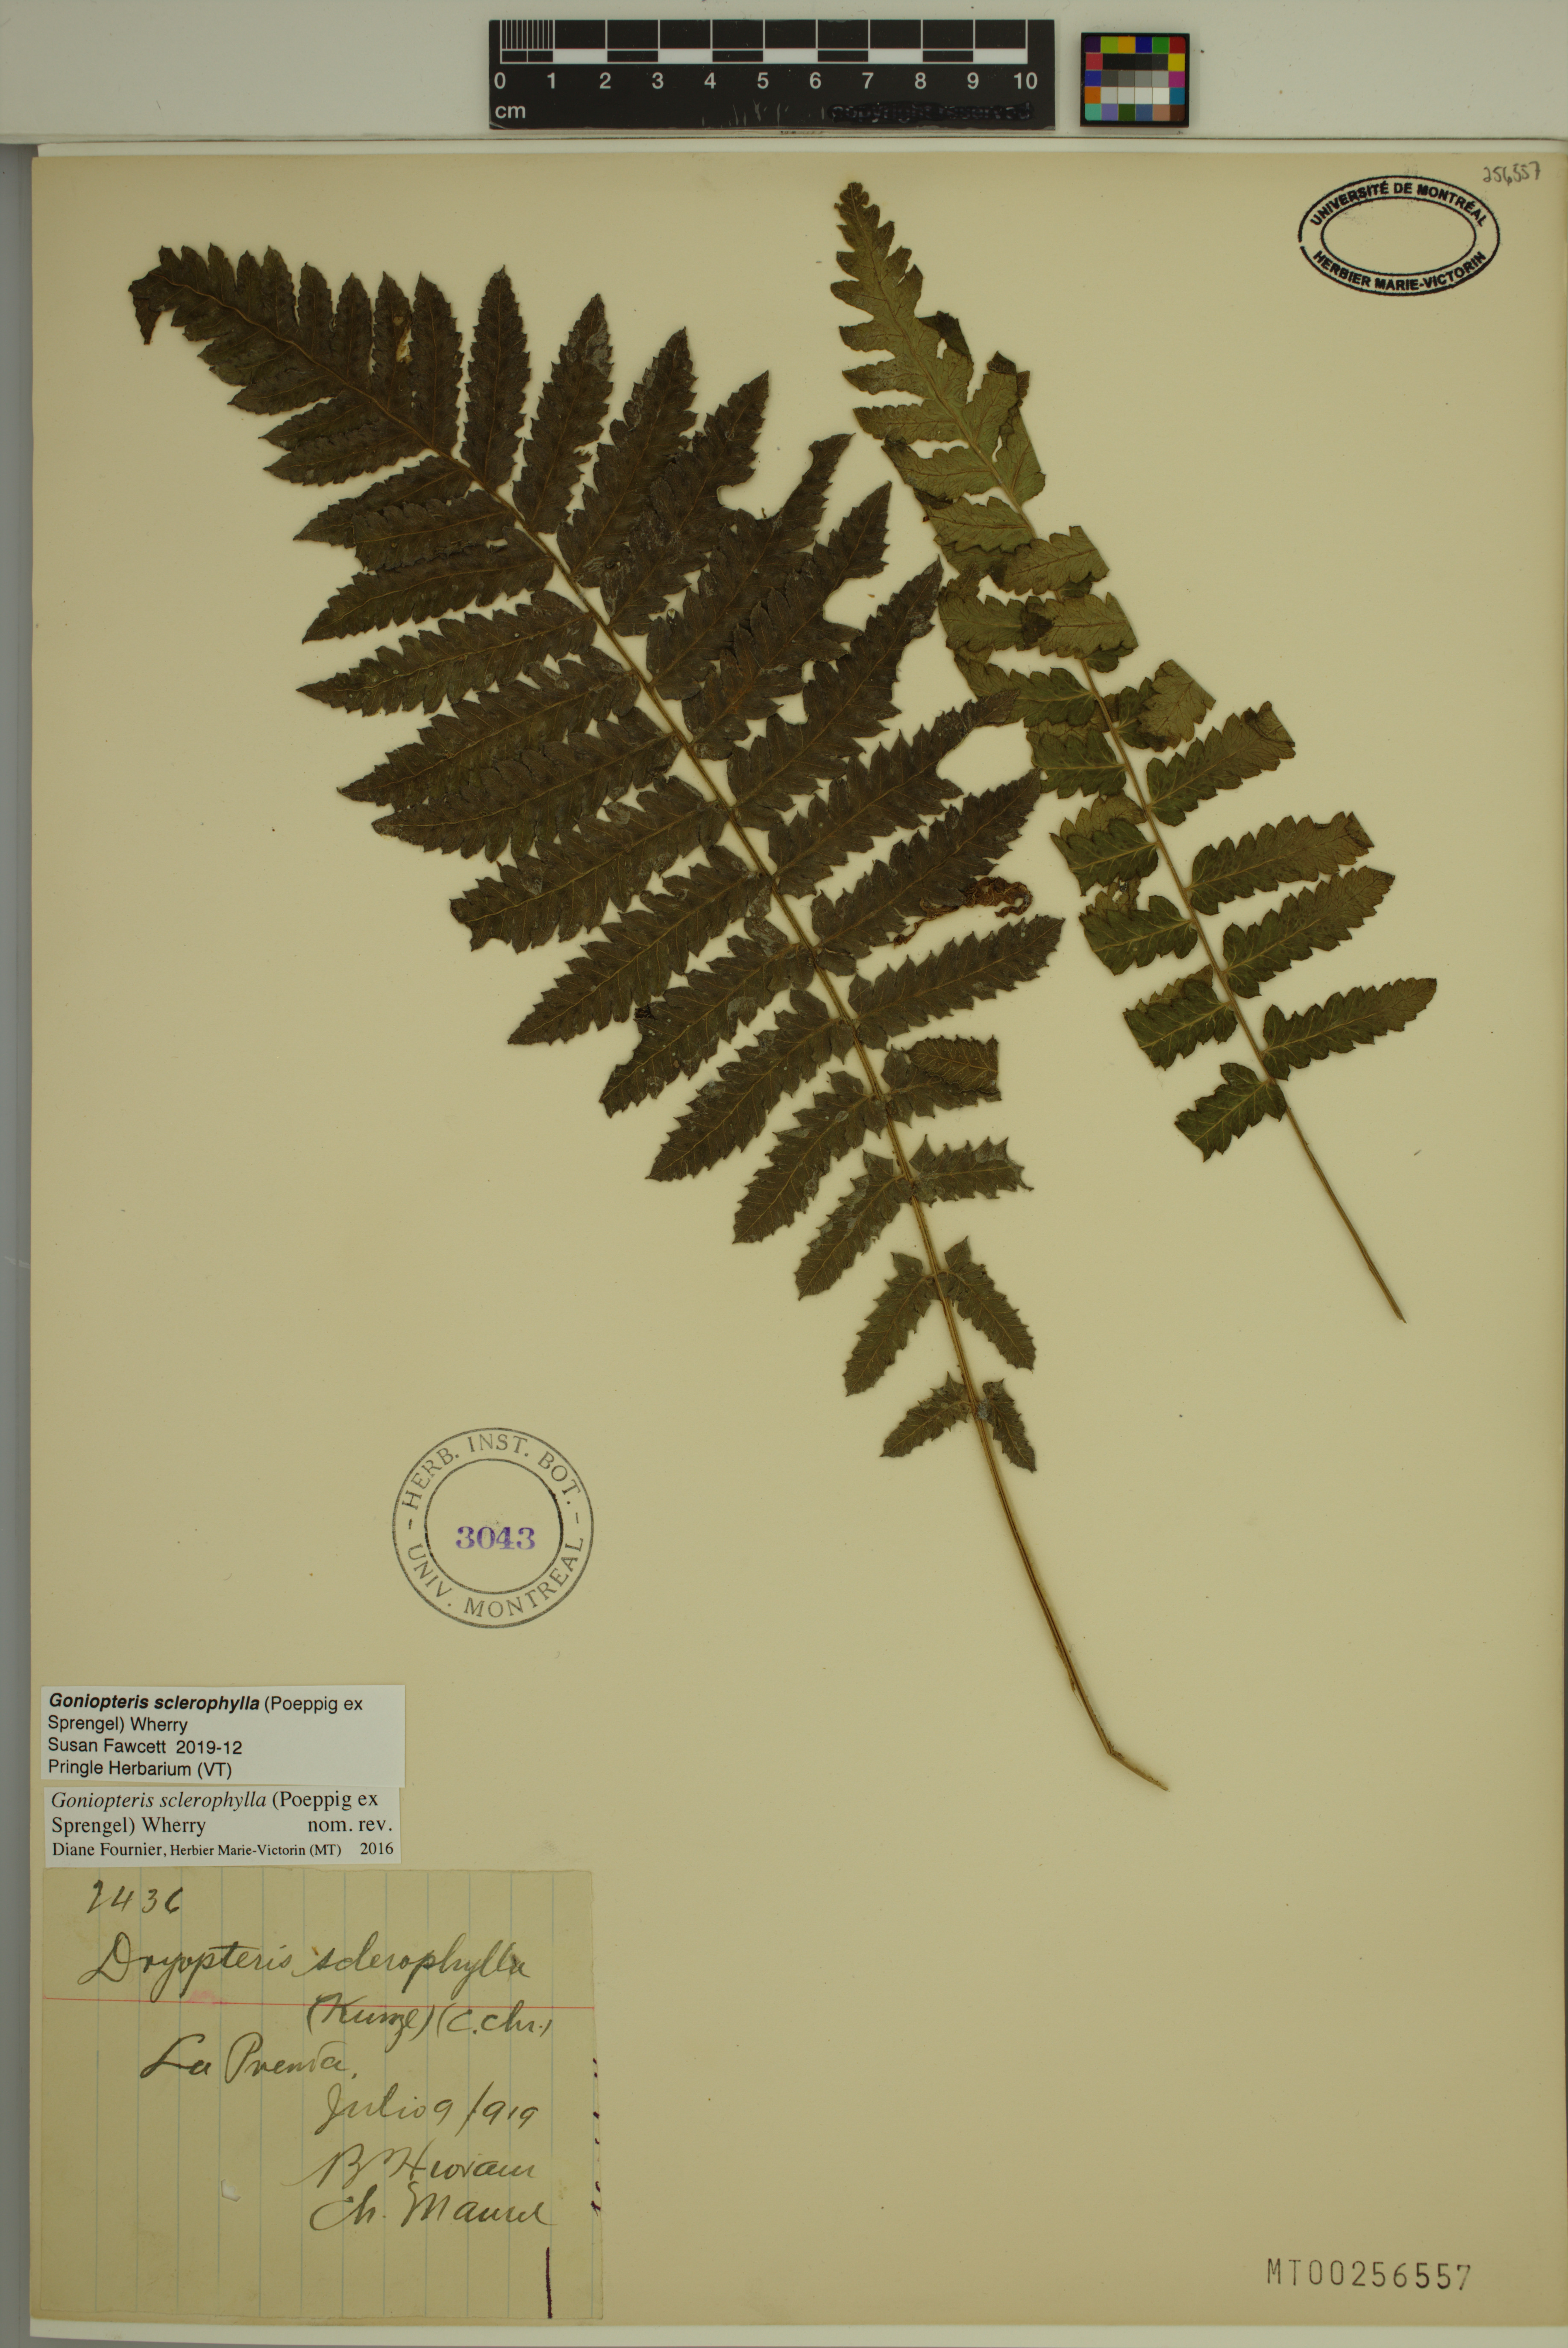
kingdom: Plantae
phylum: Tracheophyta
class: Polypodiopsida
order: Polypodiales
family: Thelypteridaceae
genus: Goniopteris
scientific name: Goniopteris sclerophylla
